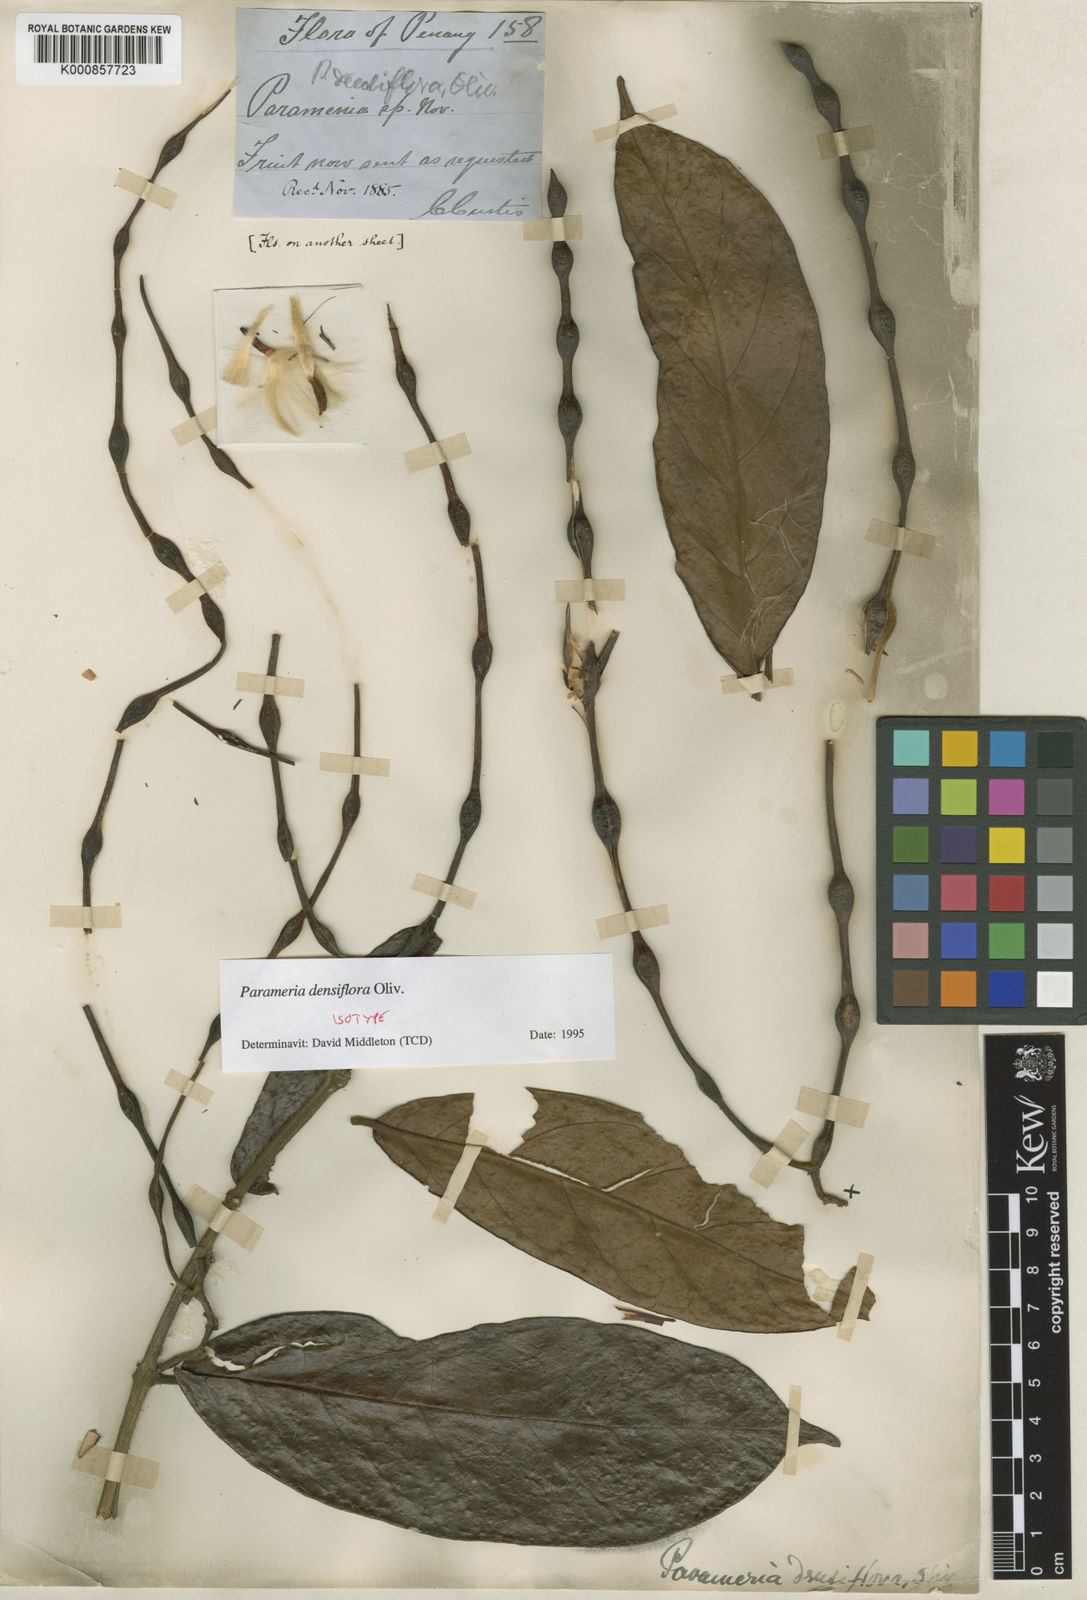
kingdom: Plantae
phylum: Tracheophyta
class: Magnoliopsida
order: Gentianales
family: Apocynaceae
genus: Urceola
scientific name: Urceola densiflora
